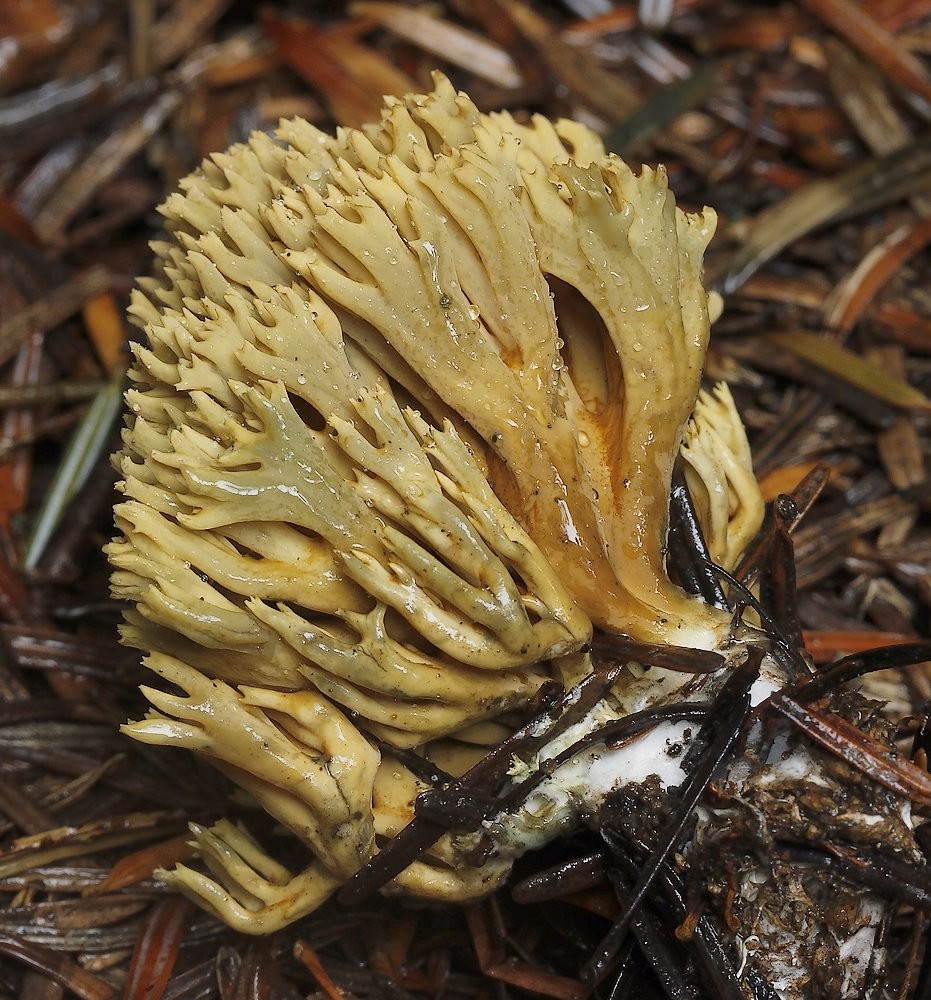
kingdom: Fungi
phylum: Basidiomycota
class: Agaricomycetes
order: Gomphales
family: Gomphaceae
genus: Phaeoclavulina
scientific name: Phaeoclavulina eumorpha
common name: gran-koralsvamp
